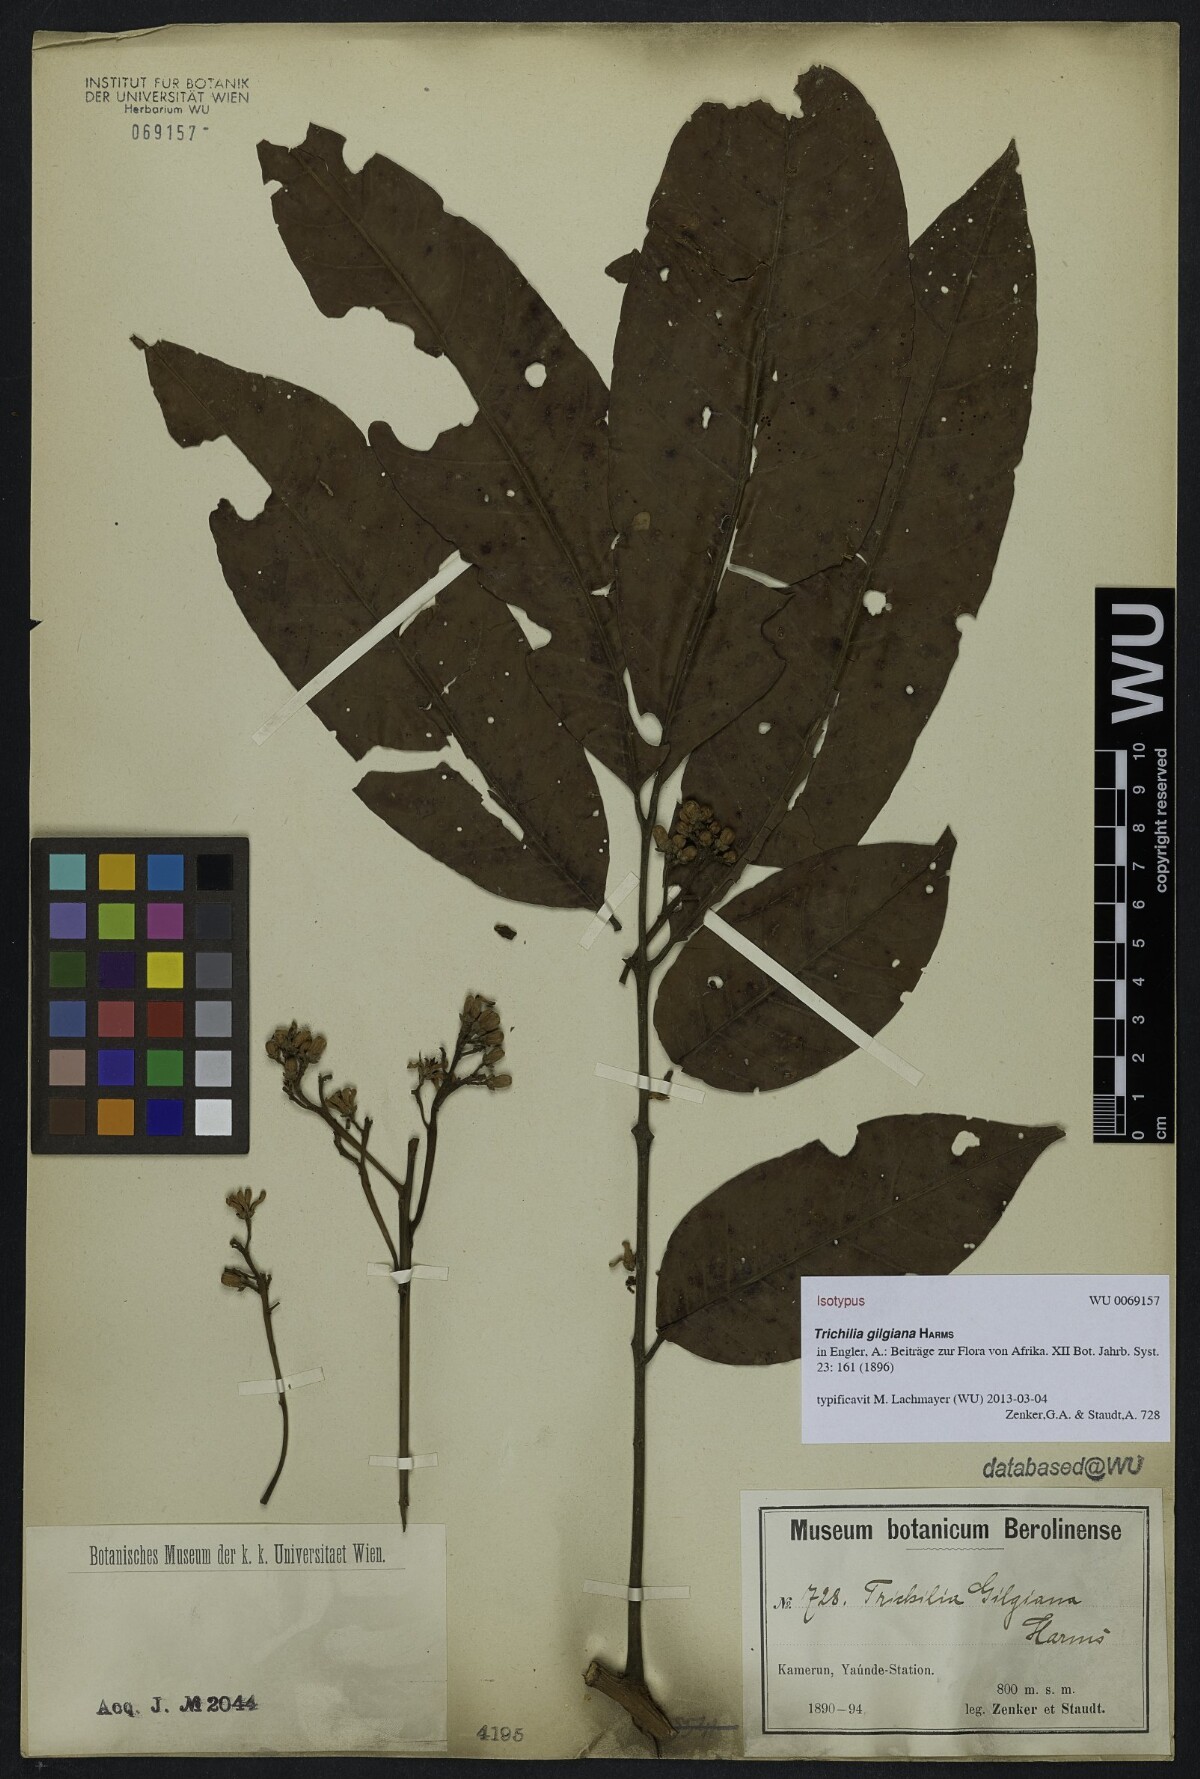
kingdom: Plantae
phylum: Tracheophyta
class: Magnoliopsida
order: Sapindales
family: Meliaceae
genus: Trichilia
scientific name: Trichilia gilgiana
